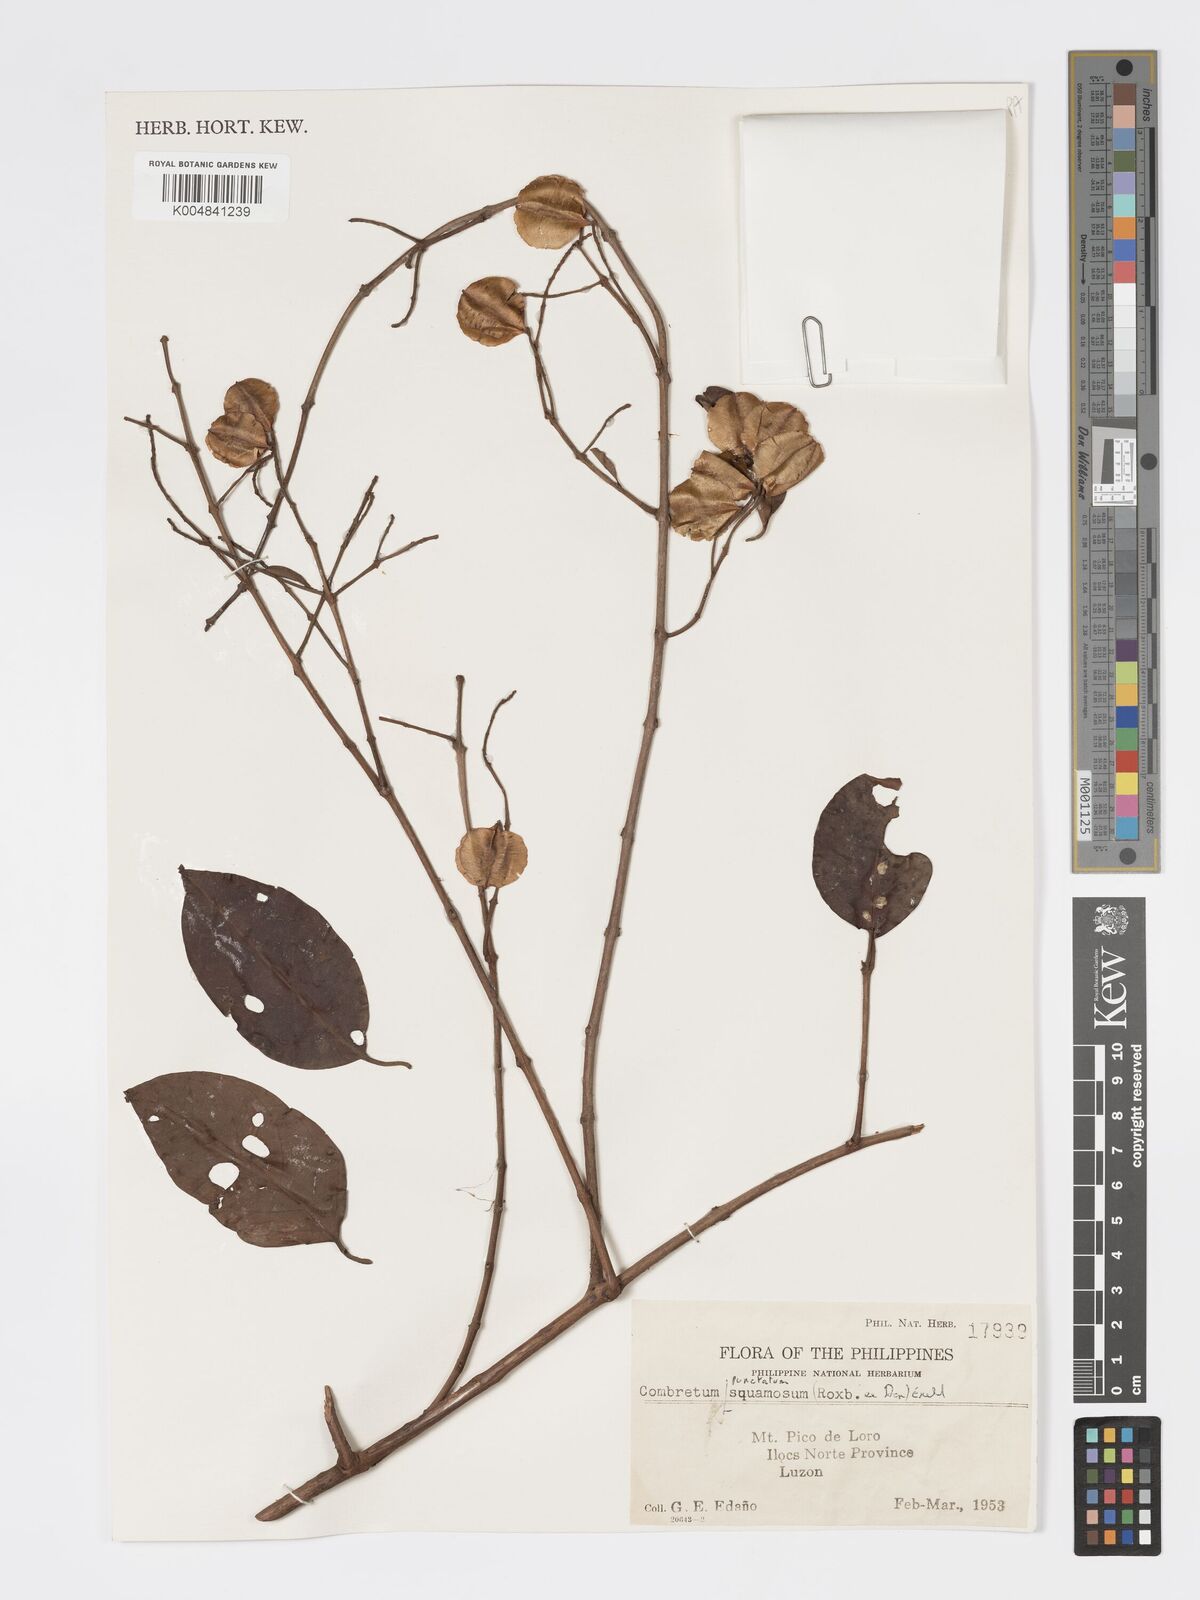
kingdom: Plantae
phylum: Tracheophyta
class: Magnoliopsida
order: Myrtales
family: Combretaceae
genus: Combretum
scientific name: Combretum
